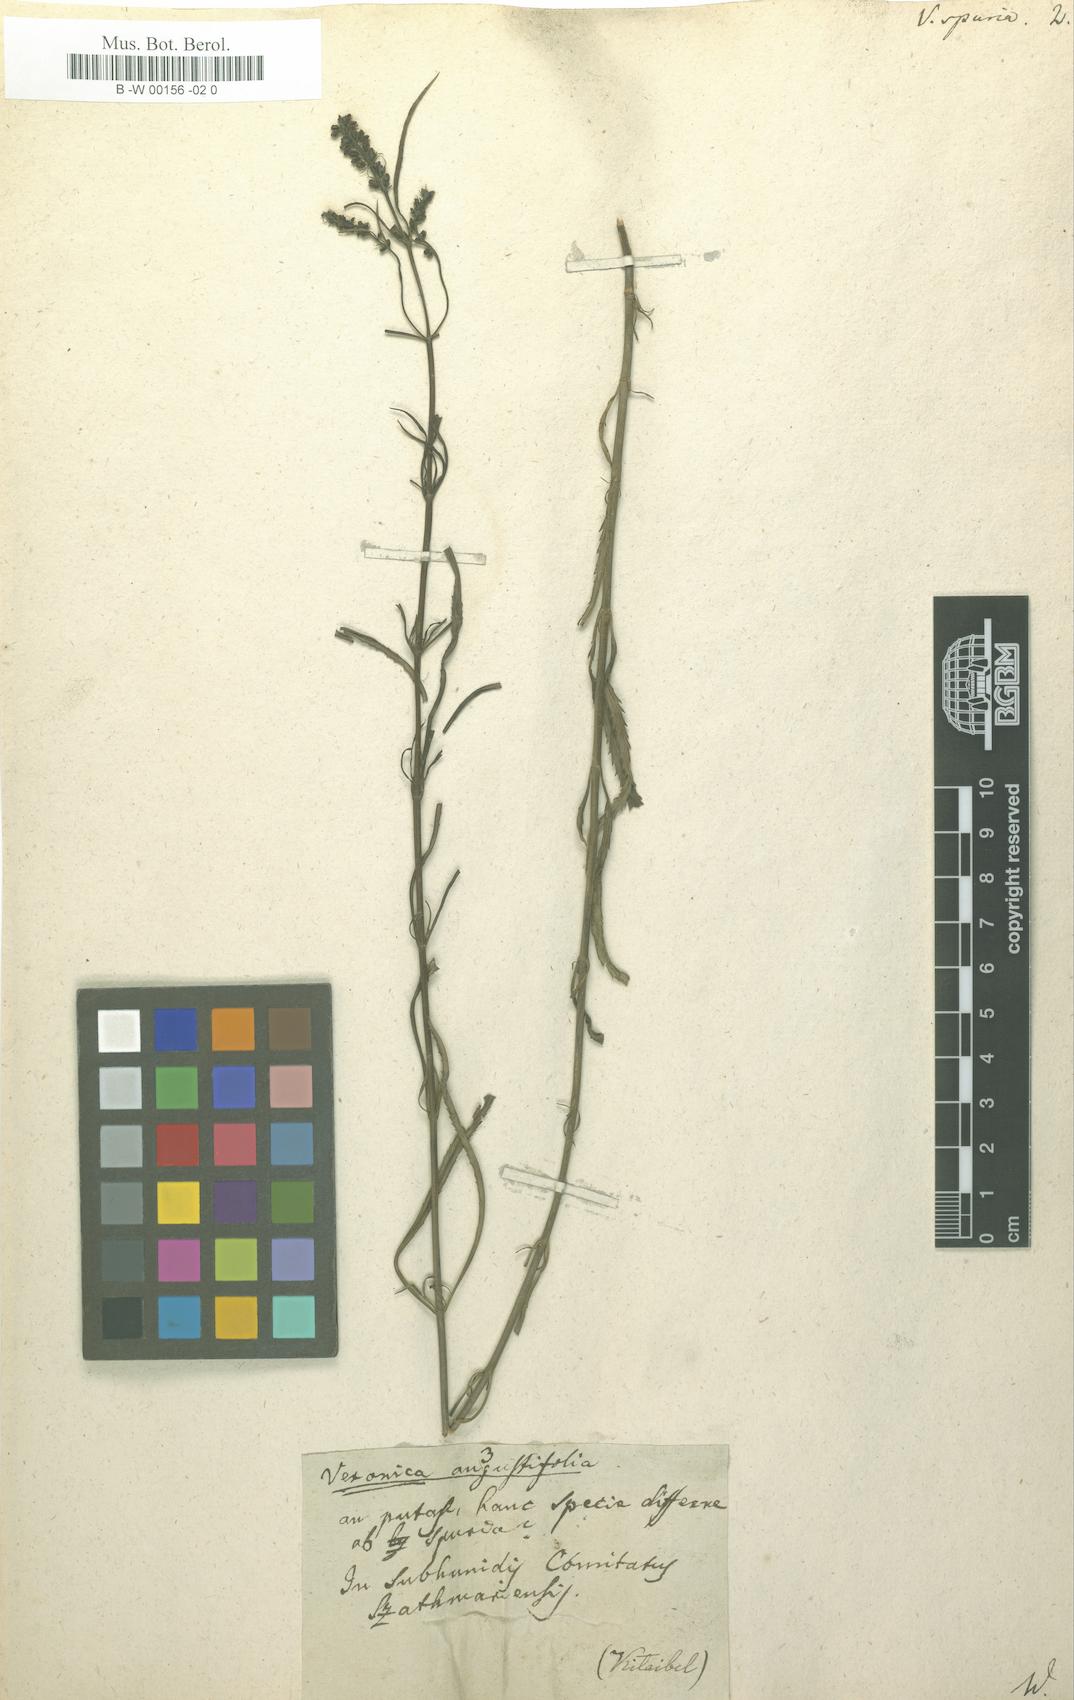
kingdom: Plantae
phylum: Tracheophyta
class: Magnoliopsida
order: Lamiales
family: Plantaginaceae
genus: Veronica
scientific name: Veronica spuria
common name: Bastard speedwell
